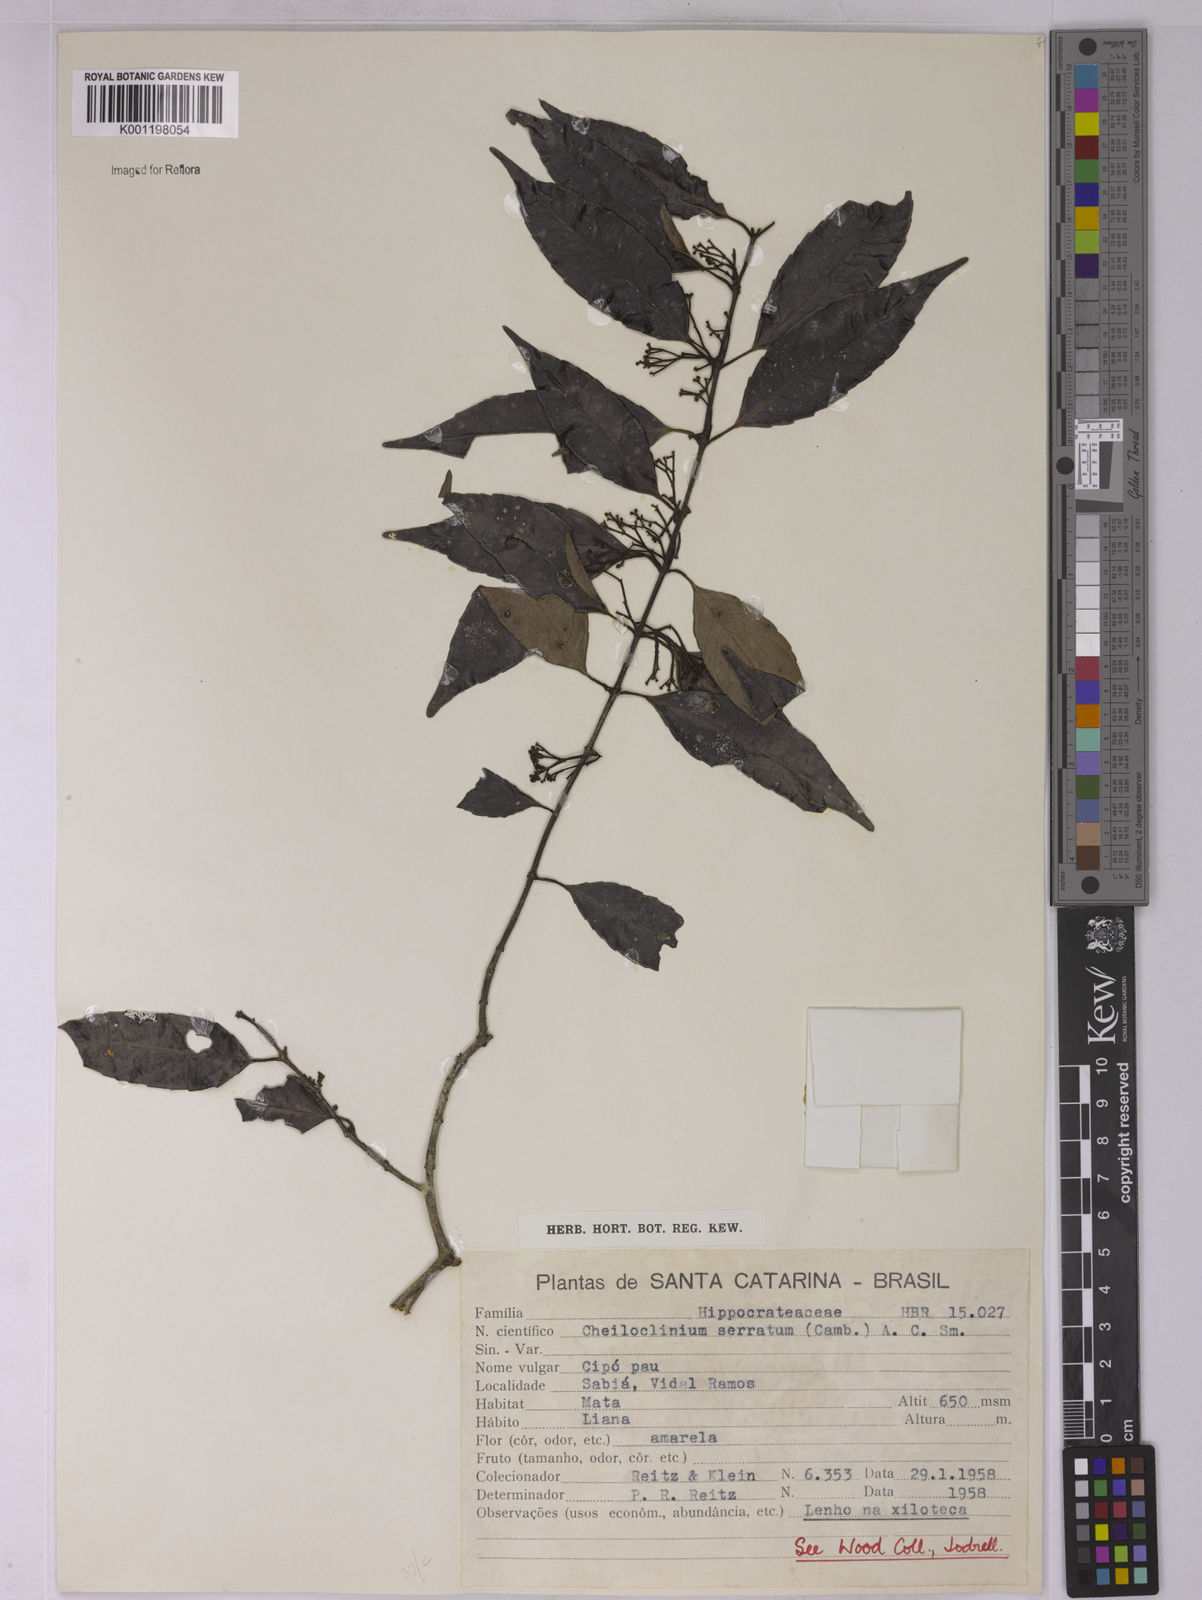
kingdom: Plantae
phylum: Tracheophyta
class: Magnoliopsida
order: Celastrales
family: Celastraceae
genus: Cheiloclinium
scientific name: Cheiloclinium serratum
